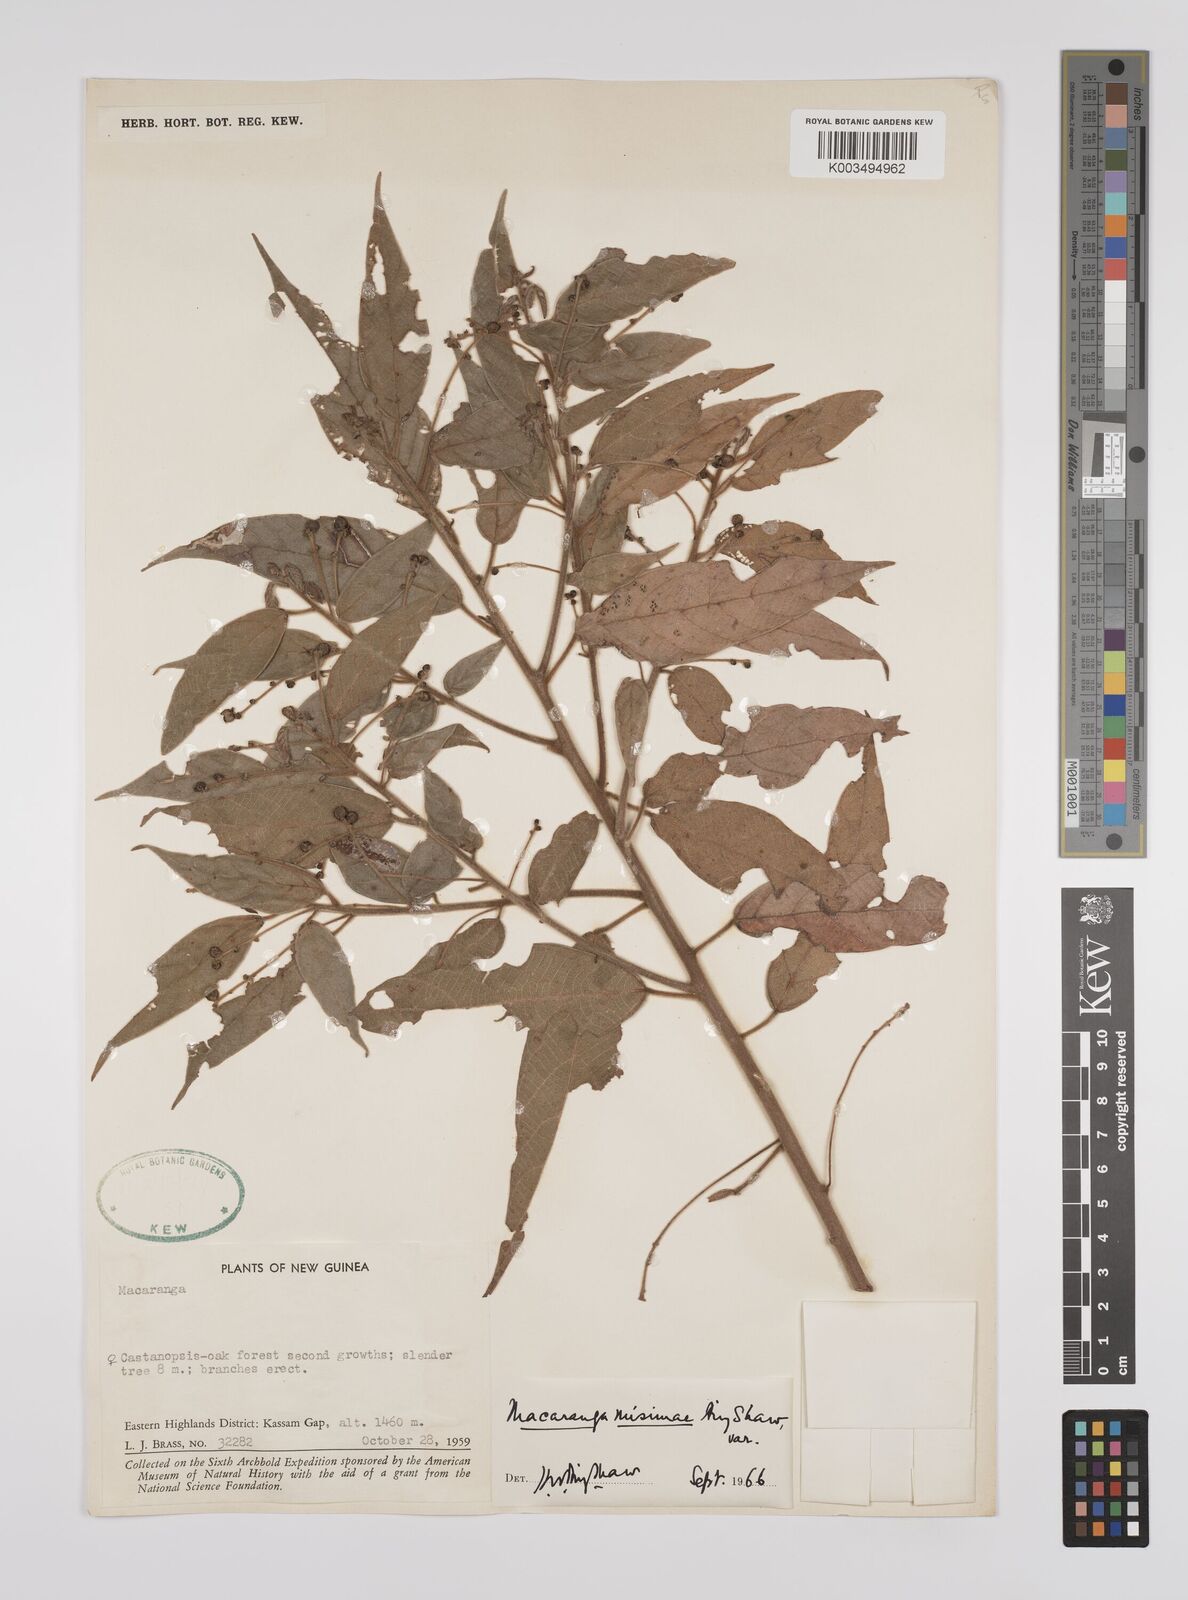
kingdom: Plantae
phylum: Tracheophyta
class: Magnoliopsida
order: Malpighiales
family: Euphorbiaceae
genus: Macaranga
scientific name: Macaranga misimae
